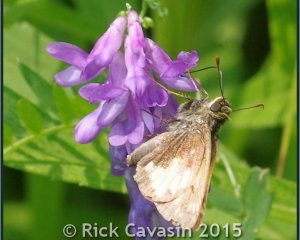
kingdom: Animalia
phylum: Arthropoda
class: Insecta
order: Lepidoptera
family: Hesperiidae
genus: Lon
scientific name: Lon hobomok
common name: Hobomok Skipper
